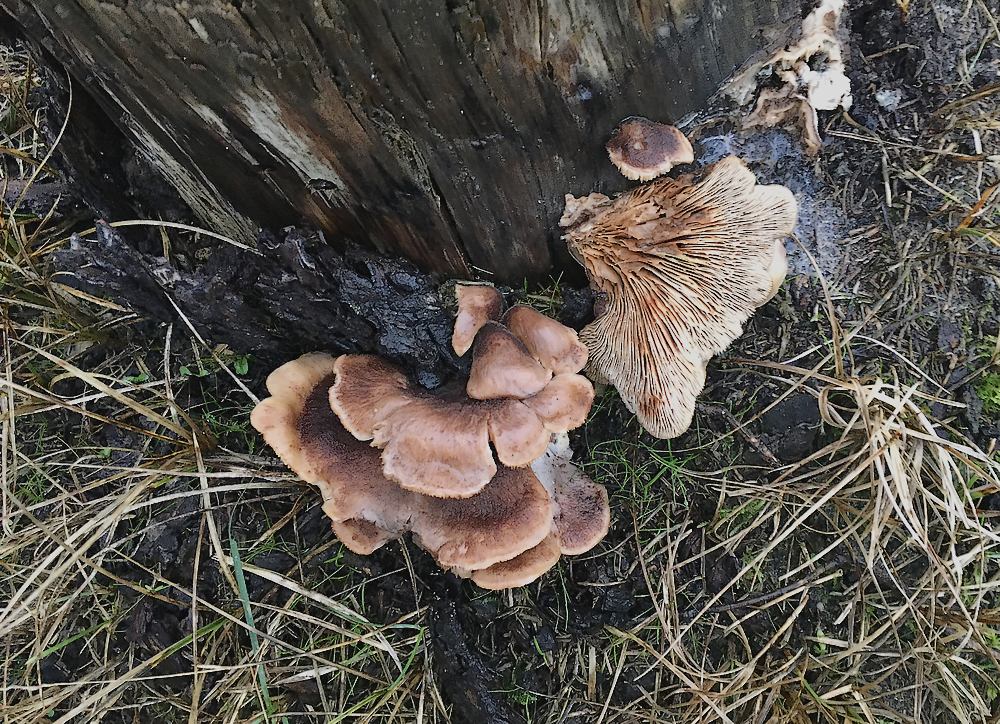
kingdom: Fungi
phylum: Basidiomycota
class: Agaricomycetes
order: Russulales
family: Auriscalpiaceae
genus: Lentinellus
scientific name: Lentinellus
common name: savbladhat
